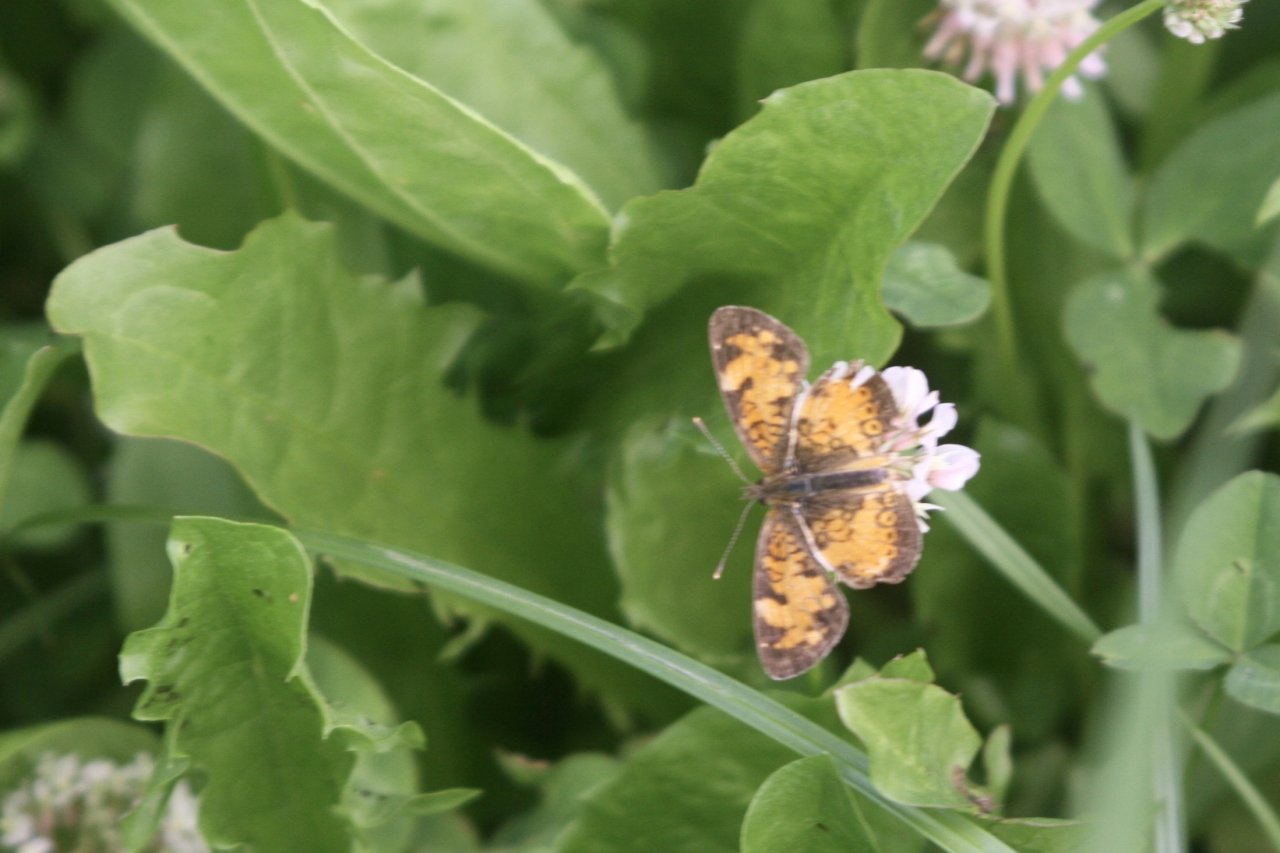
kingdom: Animalia
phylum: Arthropoda
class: Insecta
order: Lepidoptera
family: Nymphalidae
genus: Phyciodes
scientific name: Phyciodes tharos
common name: Northern Crescent
